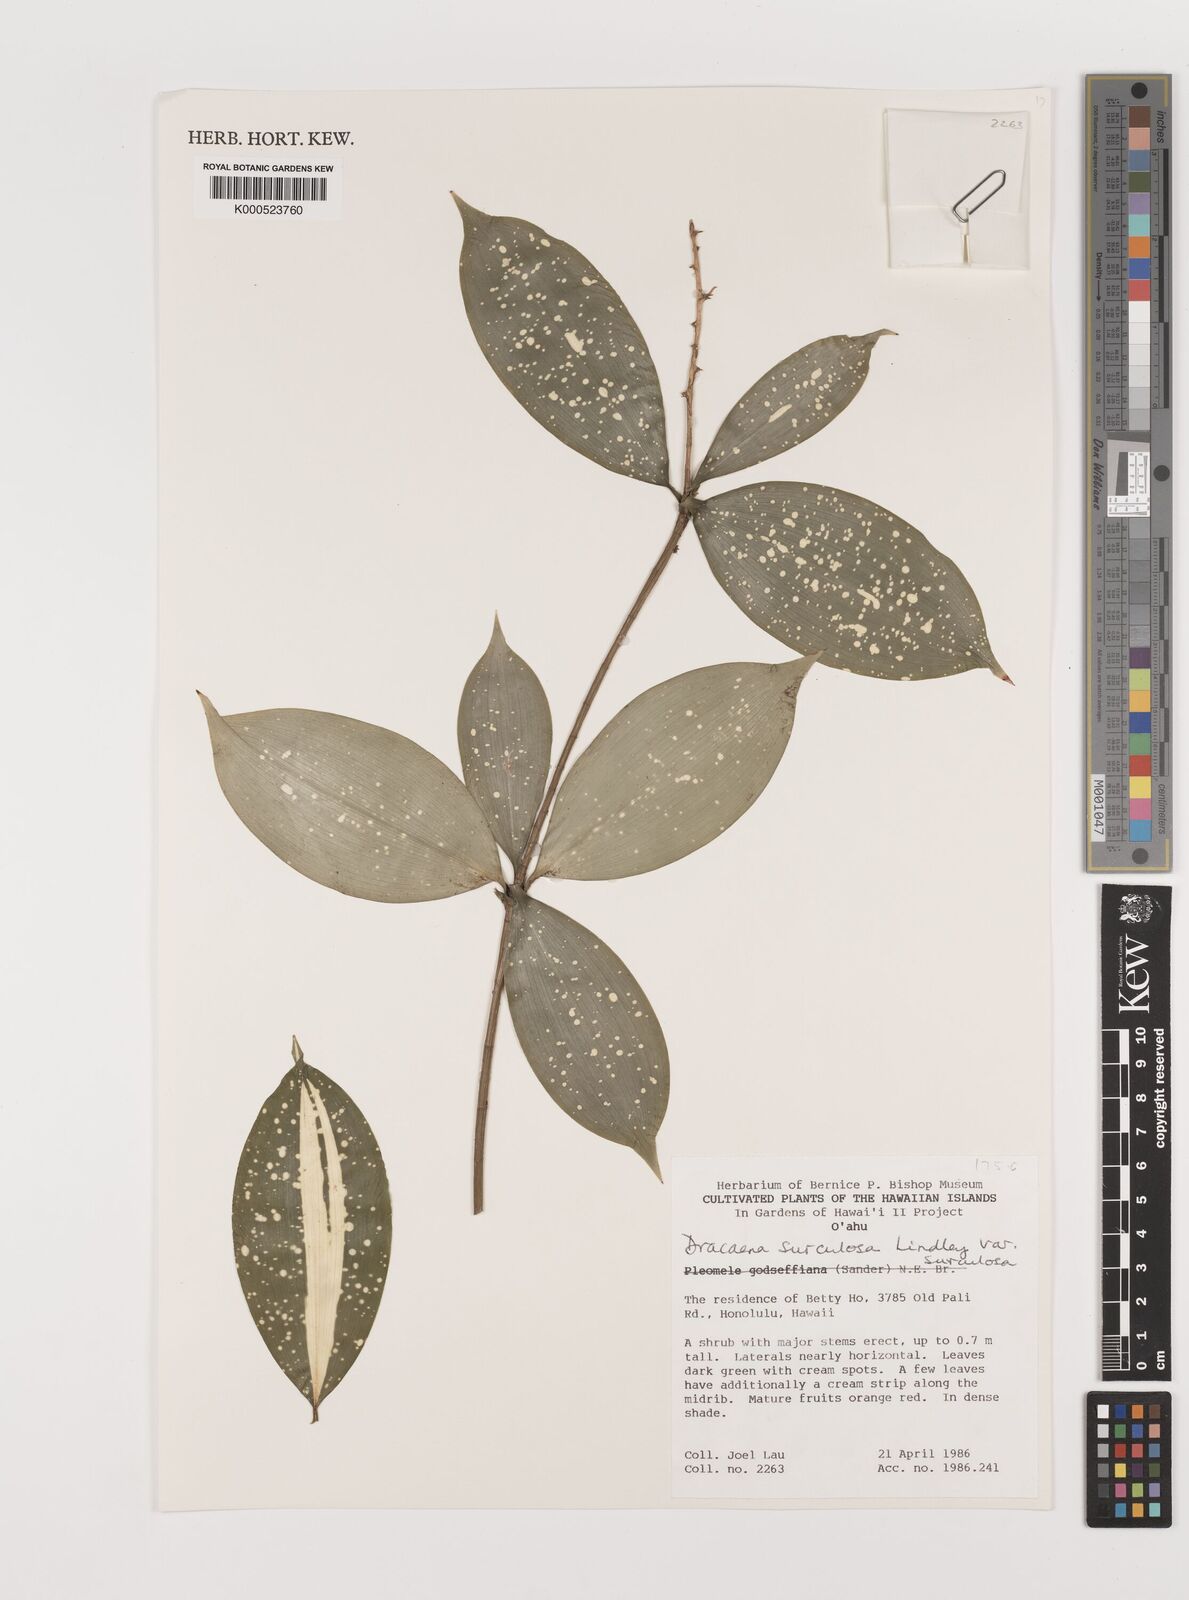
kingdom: Plantae
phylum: Tracheophyta
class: Liliopsida
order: Asparagales
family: Asparagaceae
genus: Dracaena
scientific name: Dracaena surculosa
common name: Spotted dracaena
